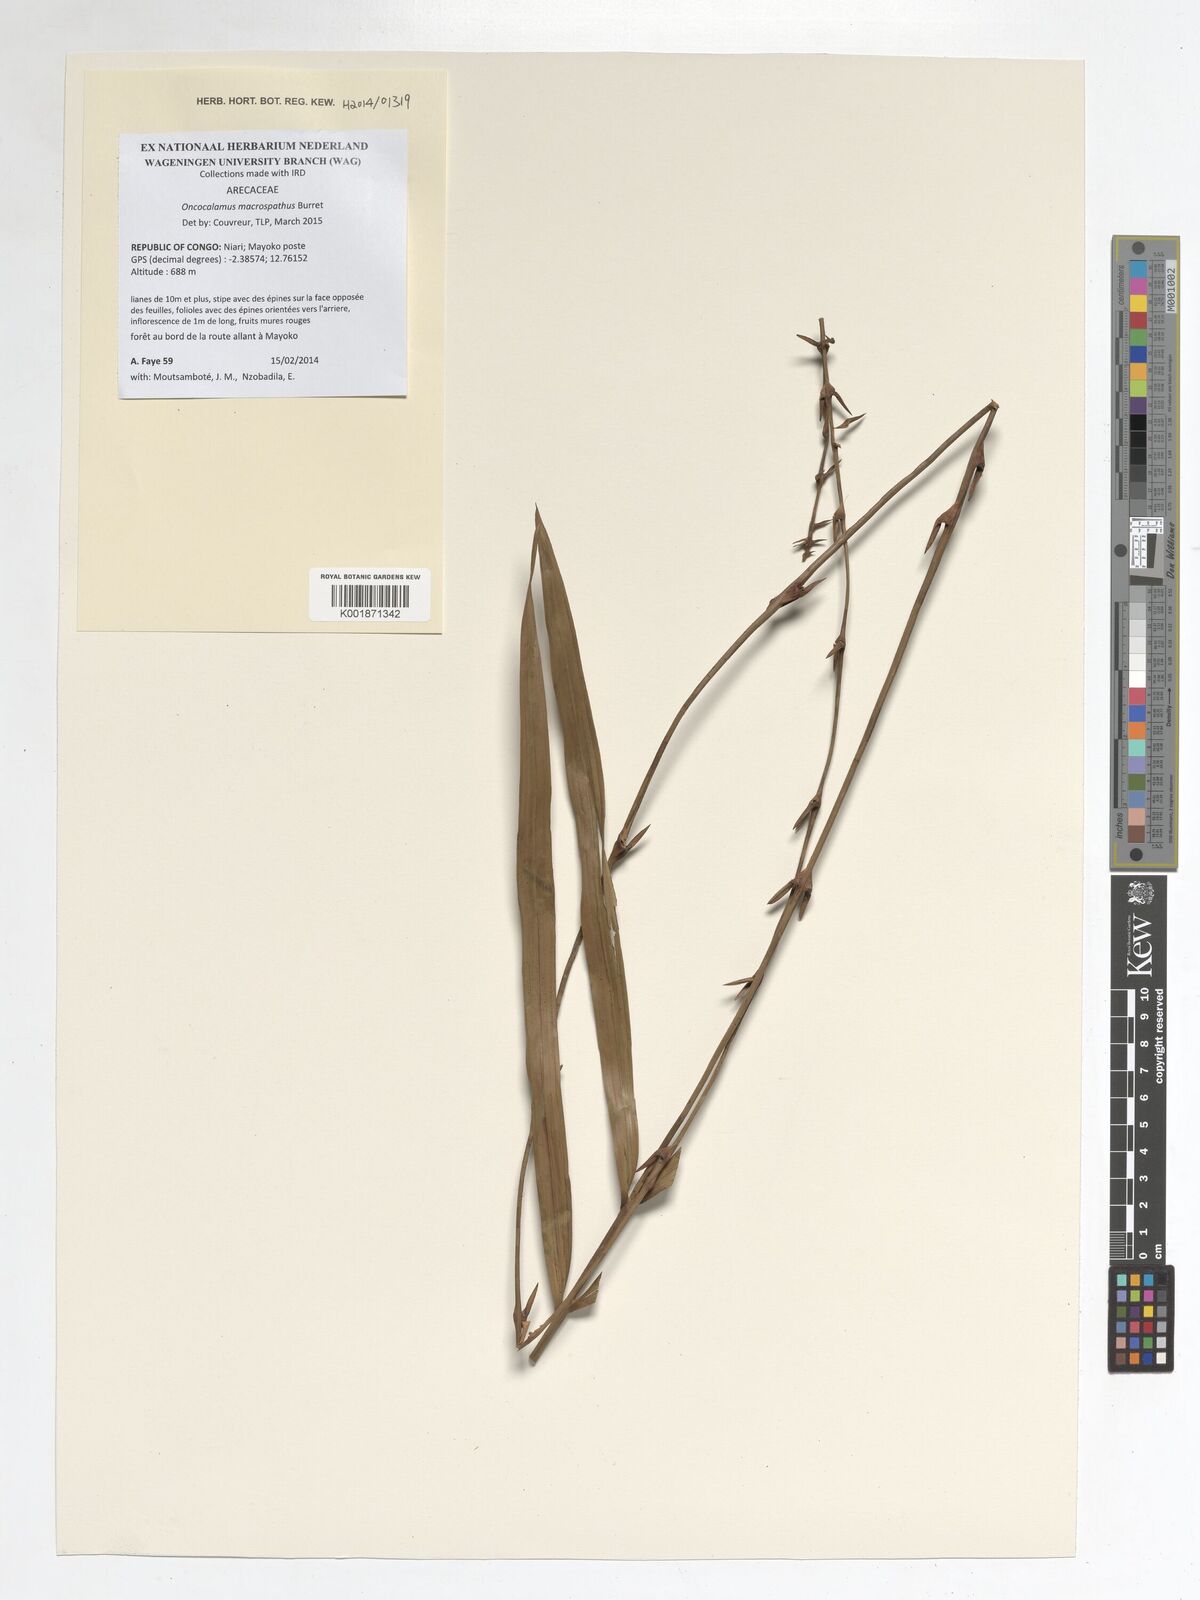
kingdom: Plantae
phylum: Tracheophyta
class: Liliopsida
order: Arecales
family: Arecaceae
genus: Oncocalamus
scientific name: Oncocalamus macrospathus
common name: Rattan
